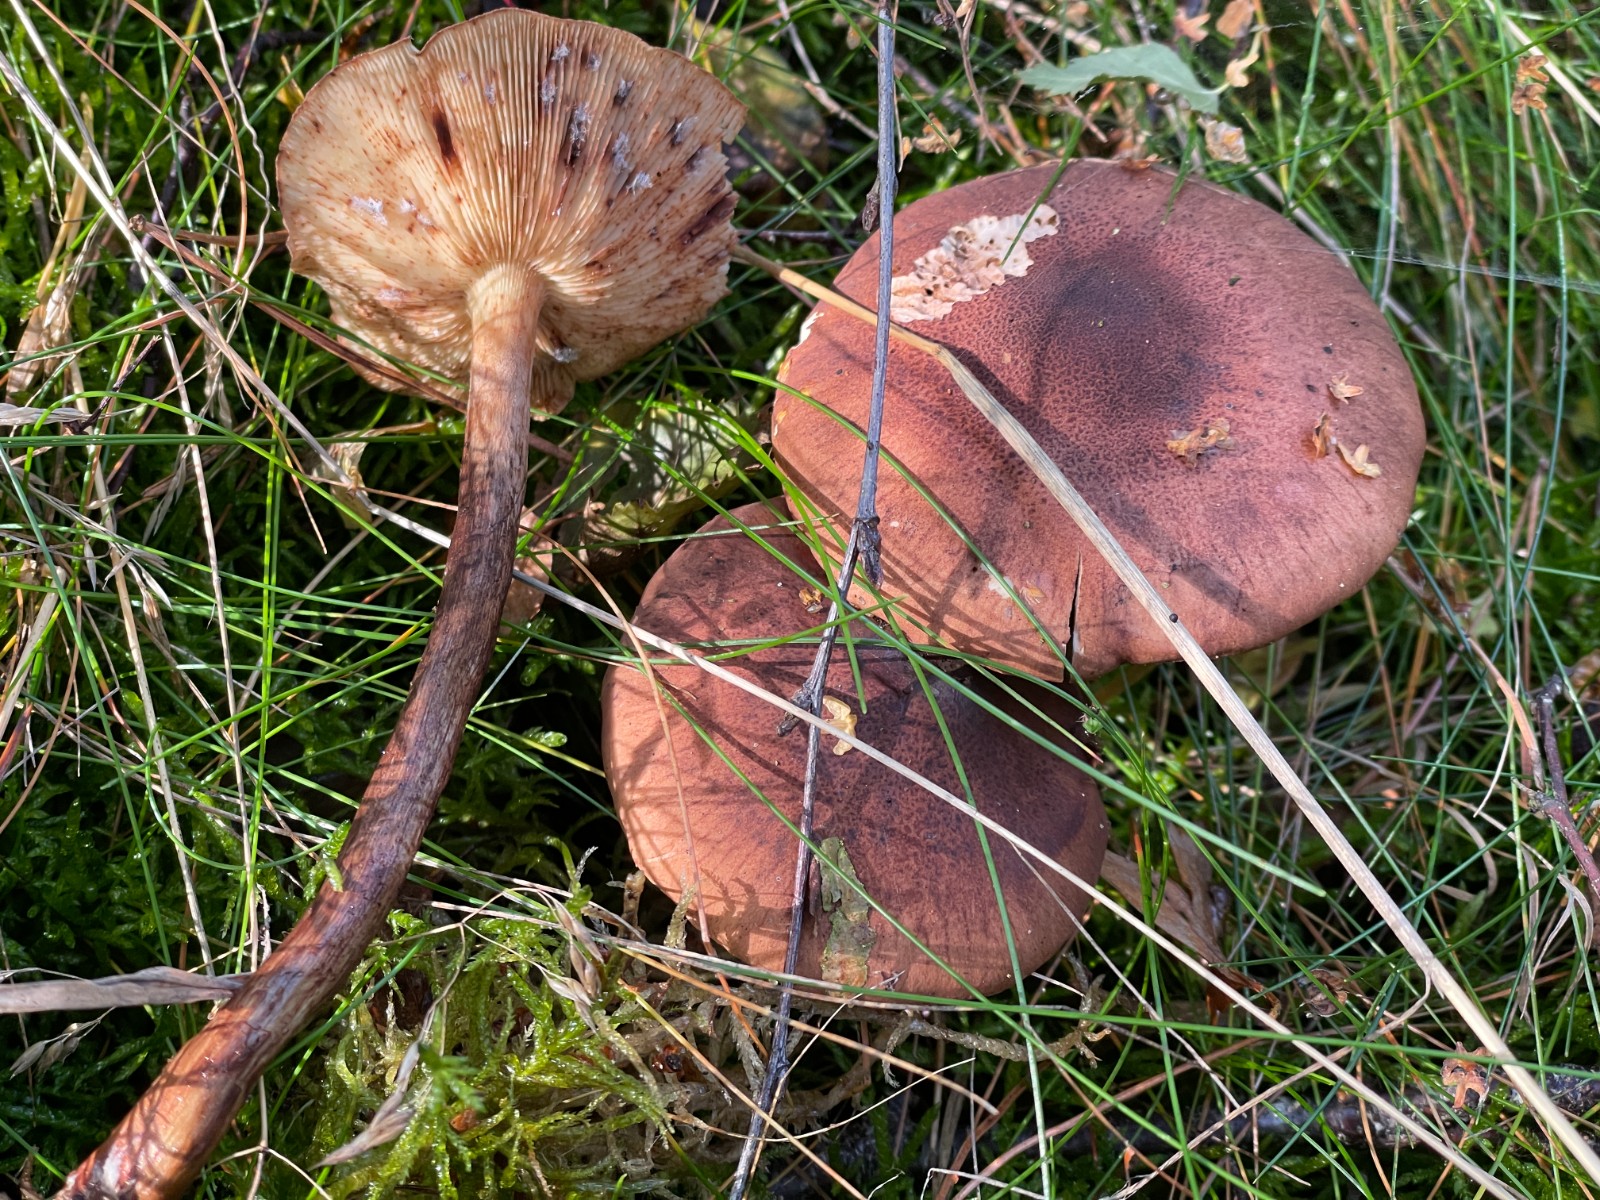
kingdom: Fungi
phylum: Basidiomycota
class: Agaricomycetes
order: Agaricales
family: Tricholomataceae
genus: Tricholoma
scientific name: Tricholoma fulvum
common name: birke-ridderhat
